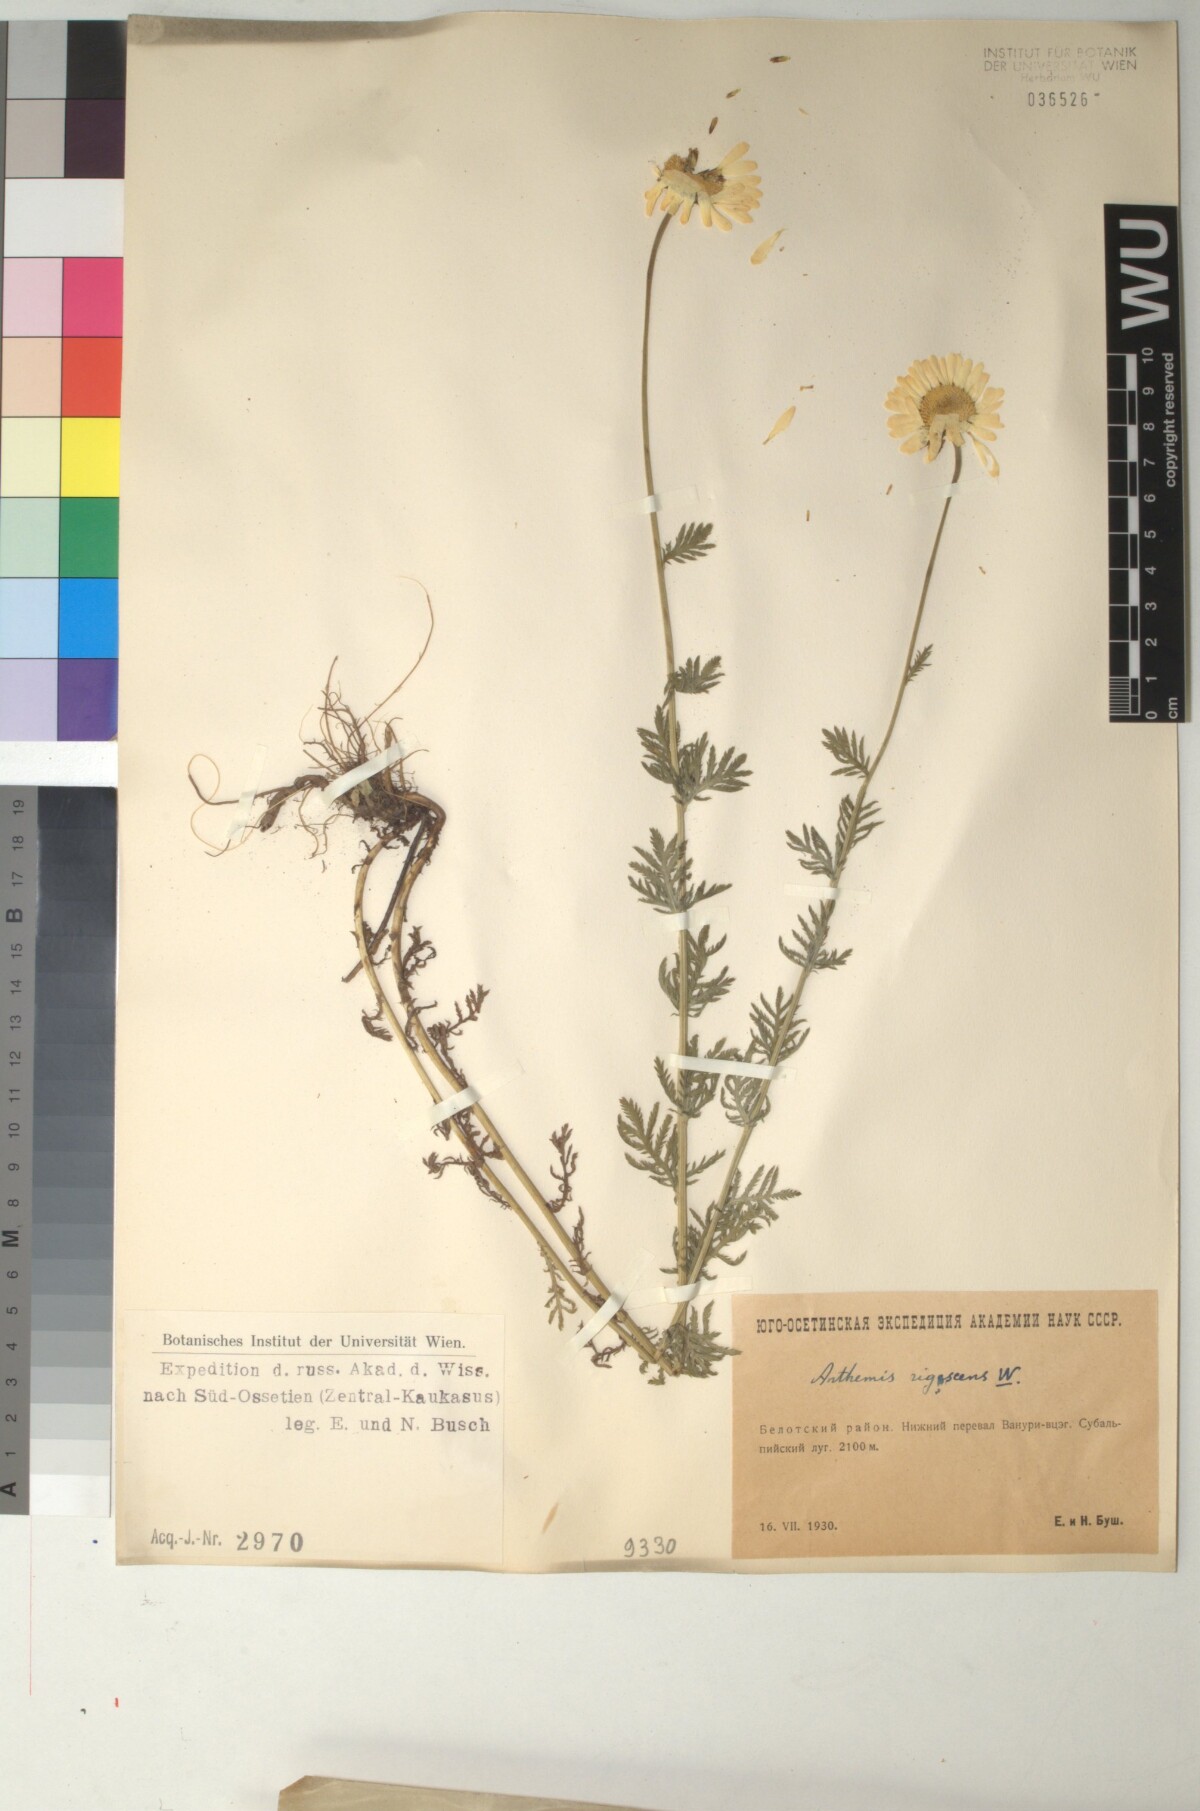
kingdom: Plantae
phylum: Tracheophyta
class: Magnoliopsida
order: Asterales
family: Asteraceae
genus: Cota
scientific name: Cota triumfetti
